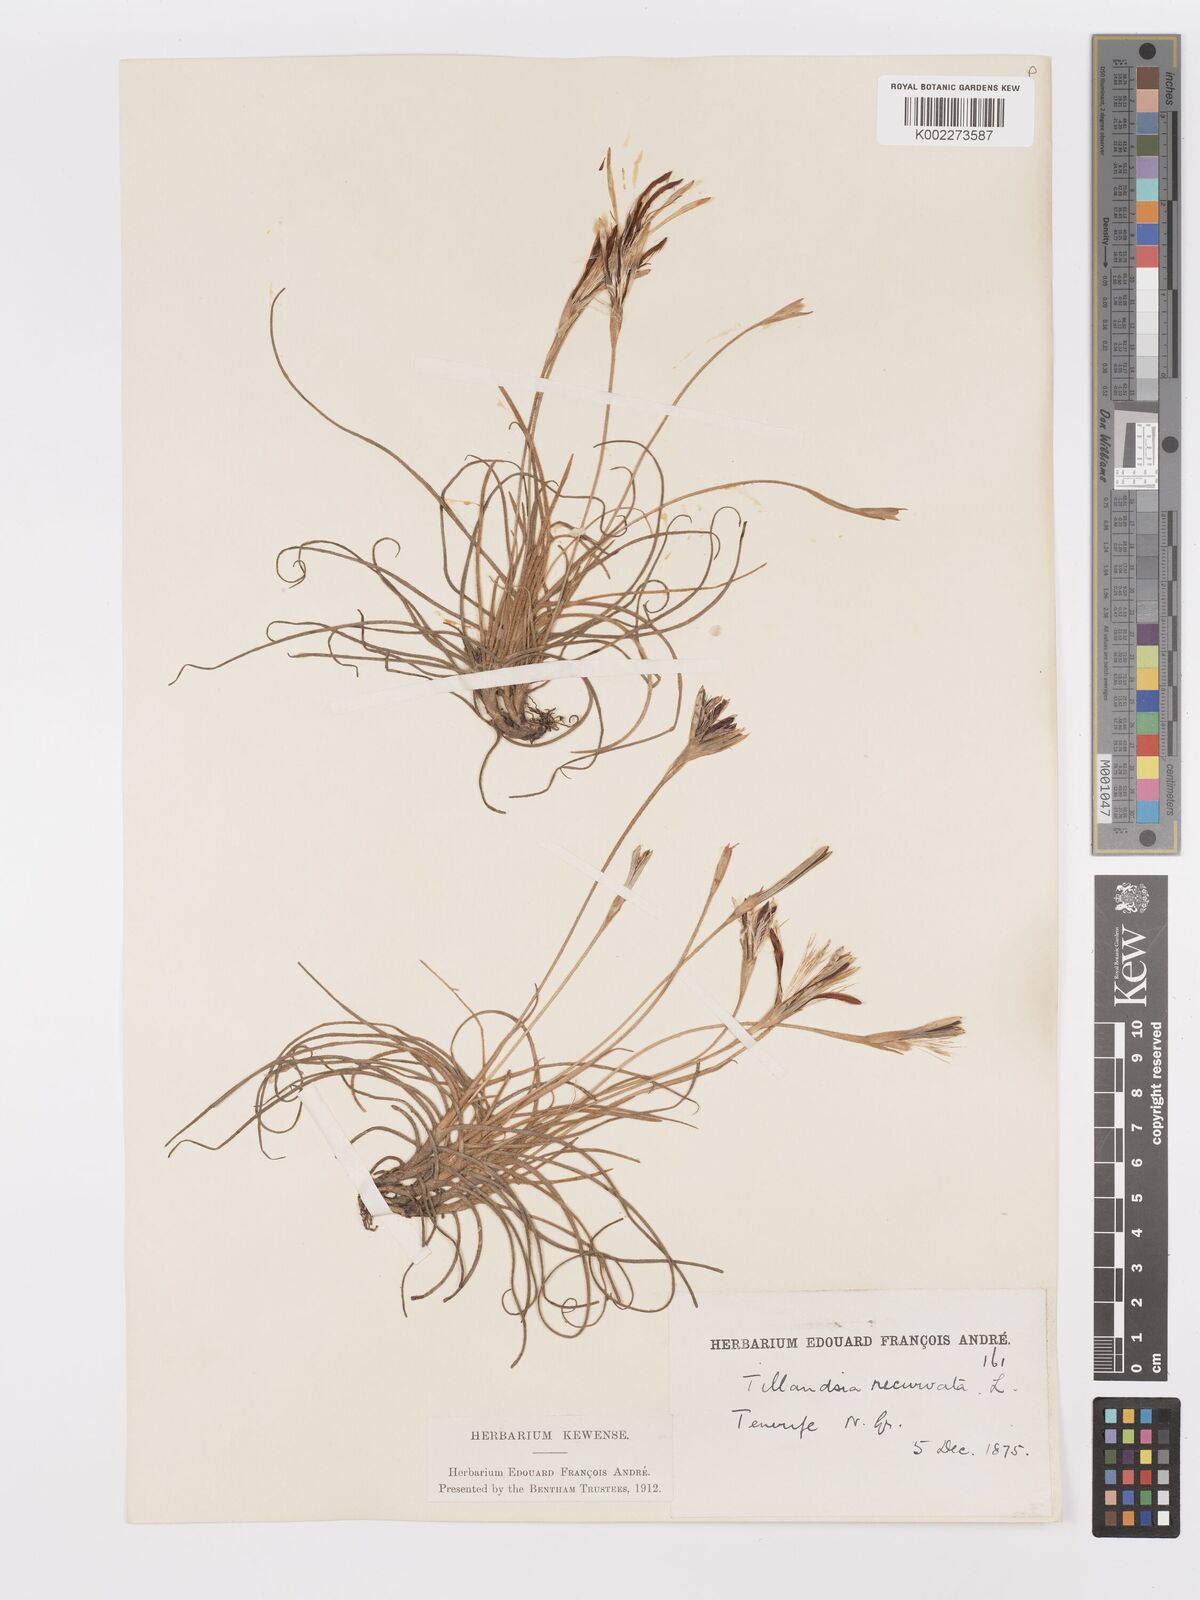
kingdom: Plantae
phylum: Tracheophyta
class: Liliopsida
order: Poales
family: Bromeliaceae
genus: Tillandsia
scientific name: Tillandsia recurvata
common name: Small ballmoss
